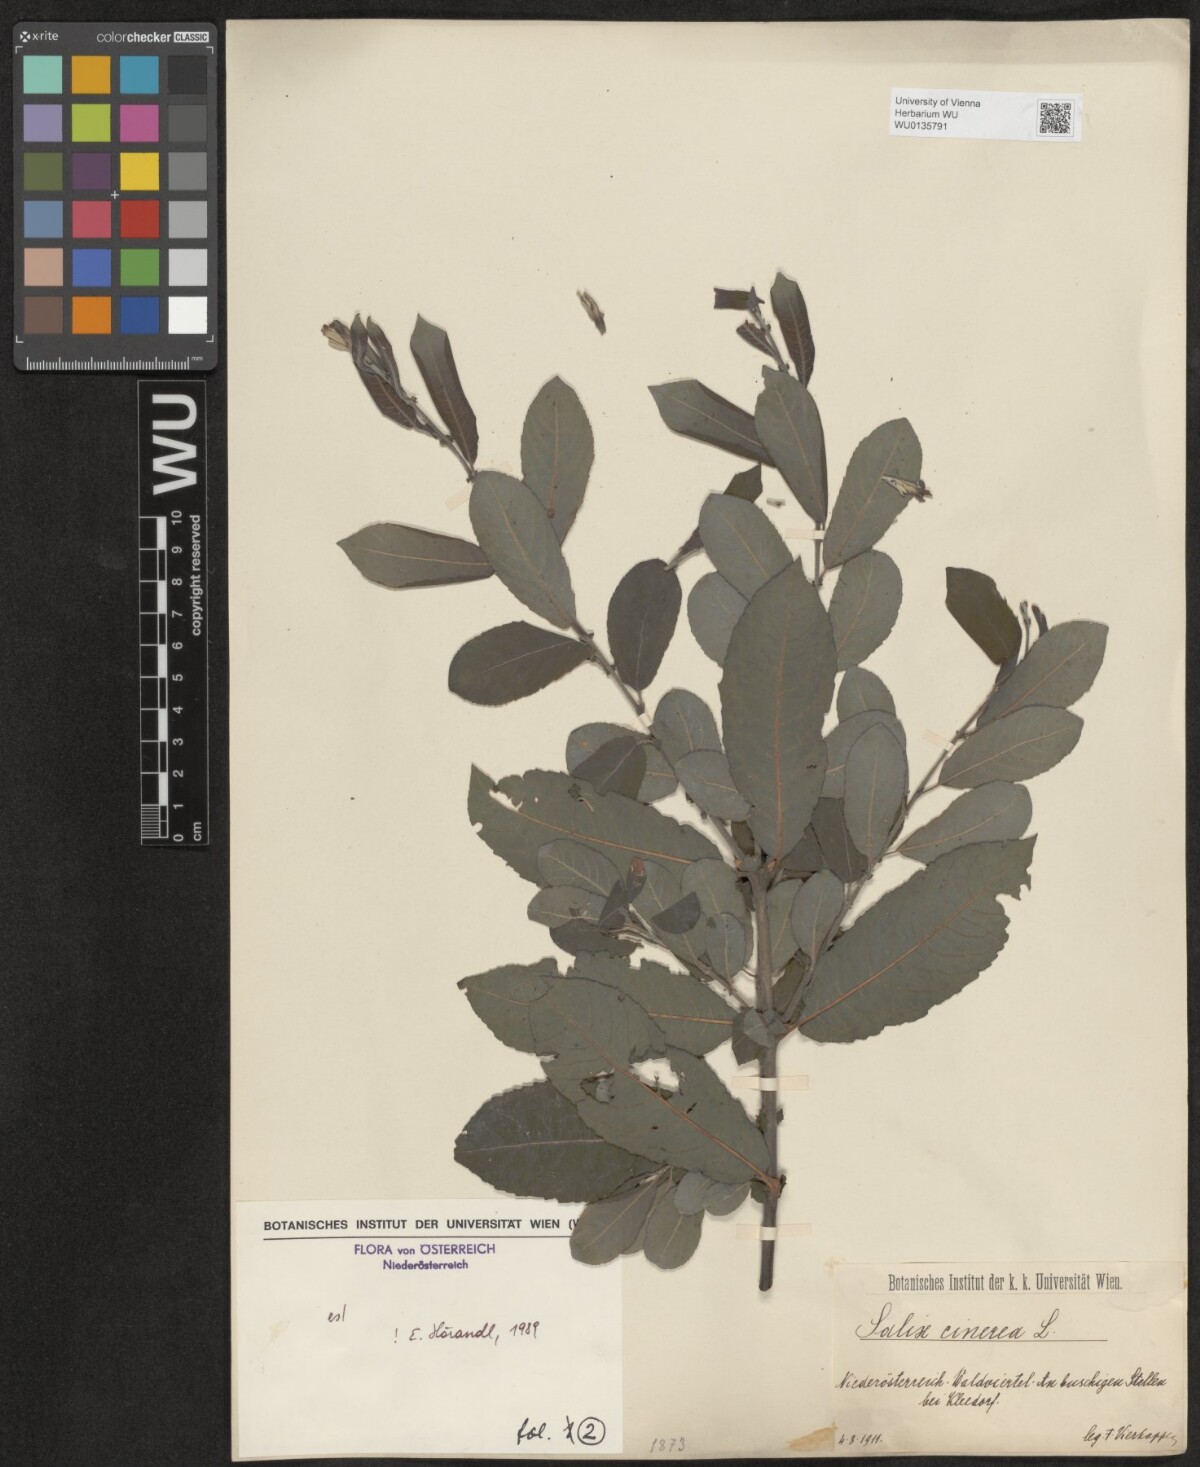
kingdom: Plantae
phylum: Tracheophyta
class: Magnoliopsida
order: Malpighiales
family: Salicaceae
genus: Salix
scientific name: Salix cinerea
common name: Common sallow
